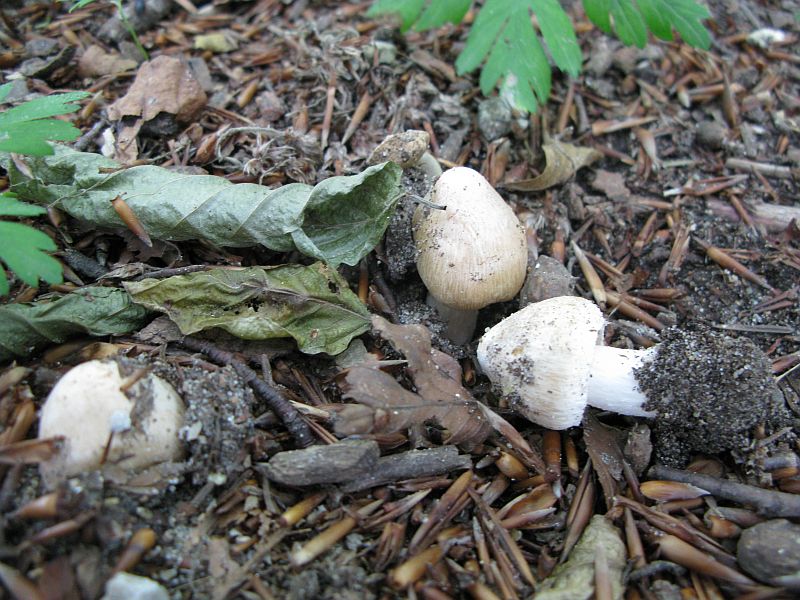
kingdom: Fungi
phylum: Basidiomycota
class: Agaricomycetes
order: Agaricales
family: Inocybaceae
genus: Inosperma
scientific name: Inosperma erubescens
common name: giftig trævlhat
